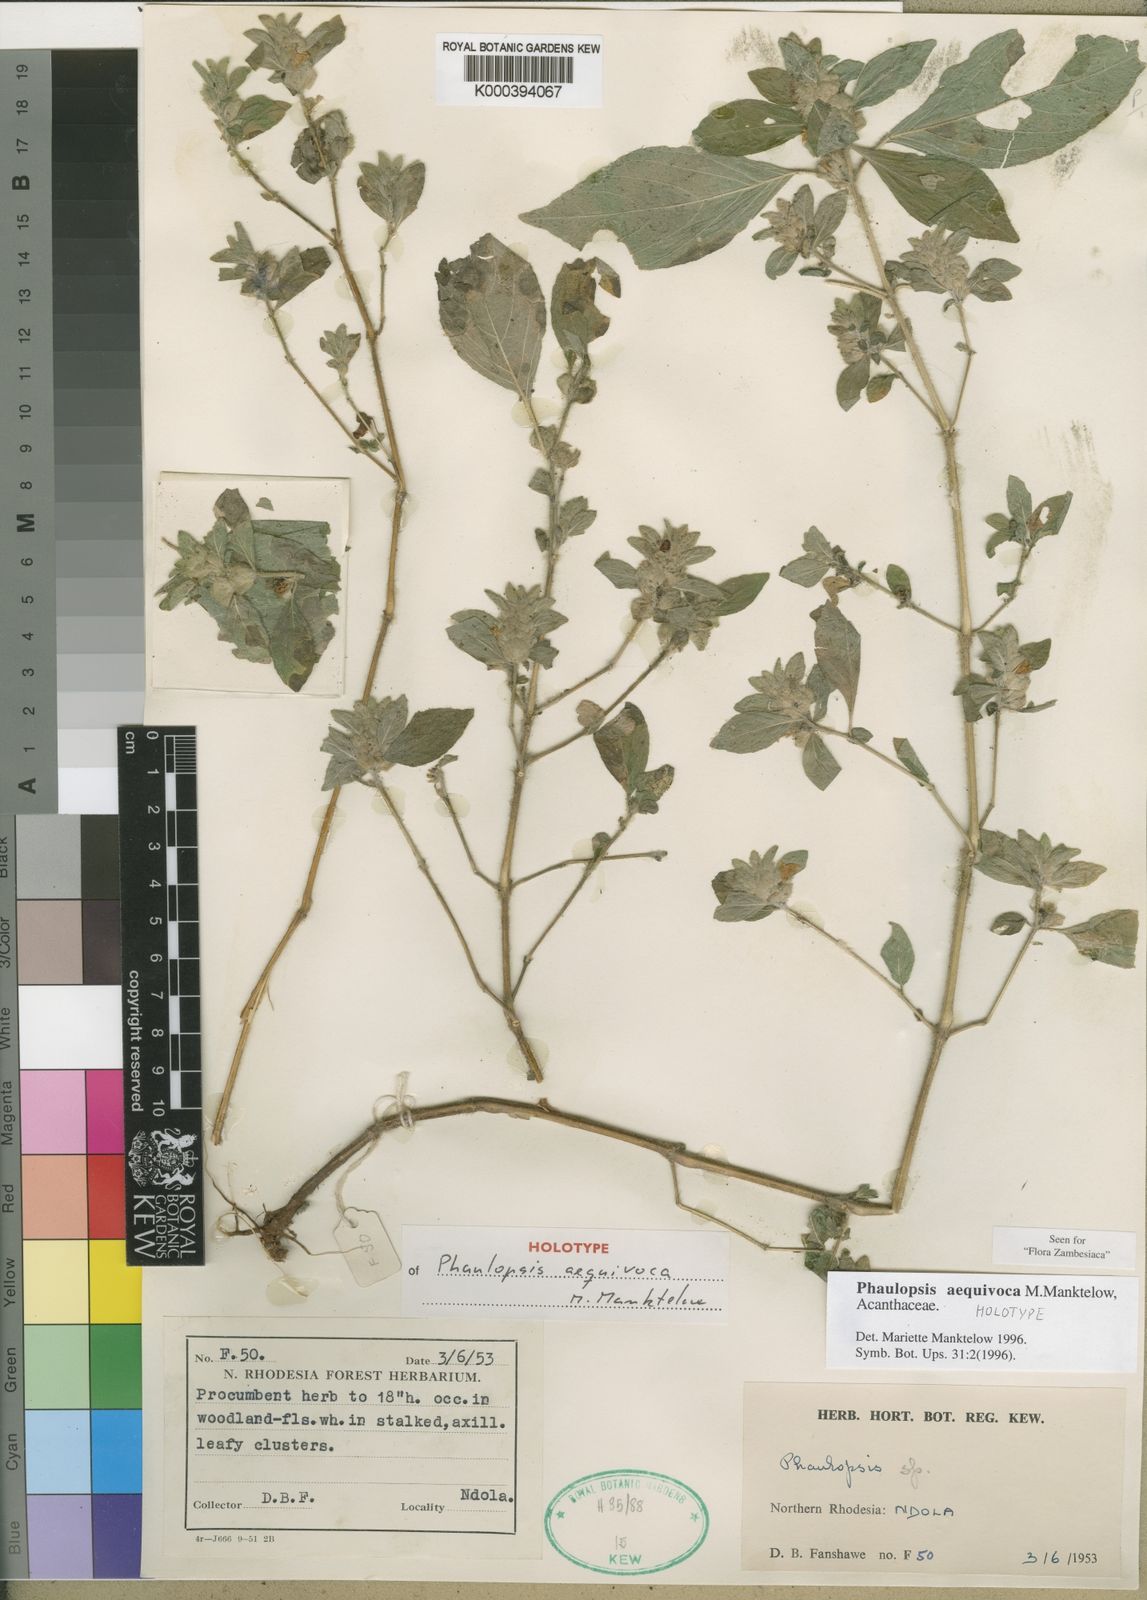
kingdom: Plantae
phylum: Tracheophyta
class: Magnoliopsida
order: Lamiales
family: Acanthaceae
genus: Phaulopsis
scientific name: Phaulopsis aequivoca
